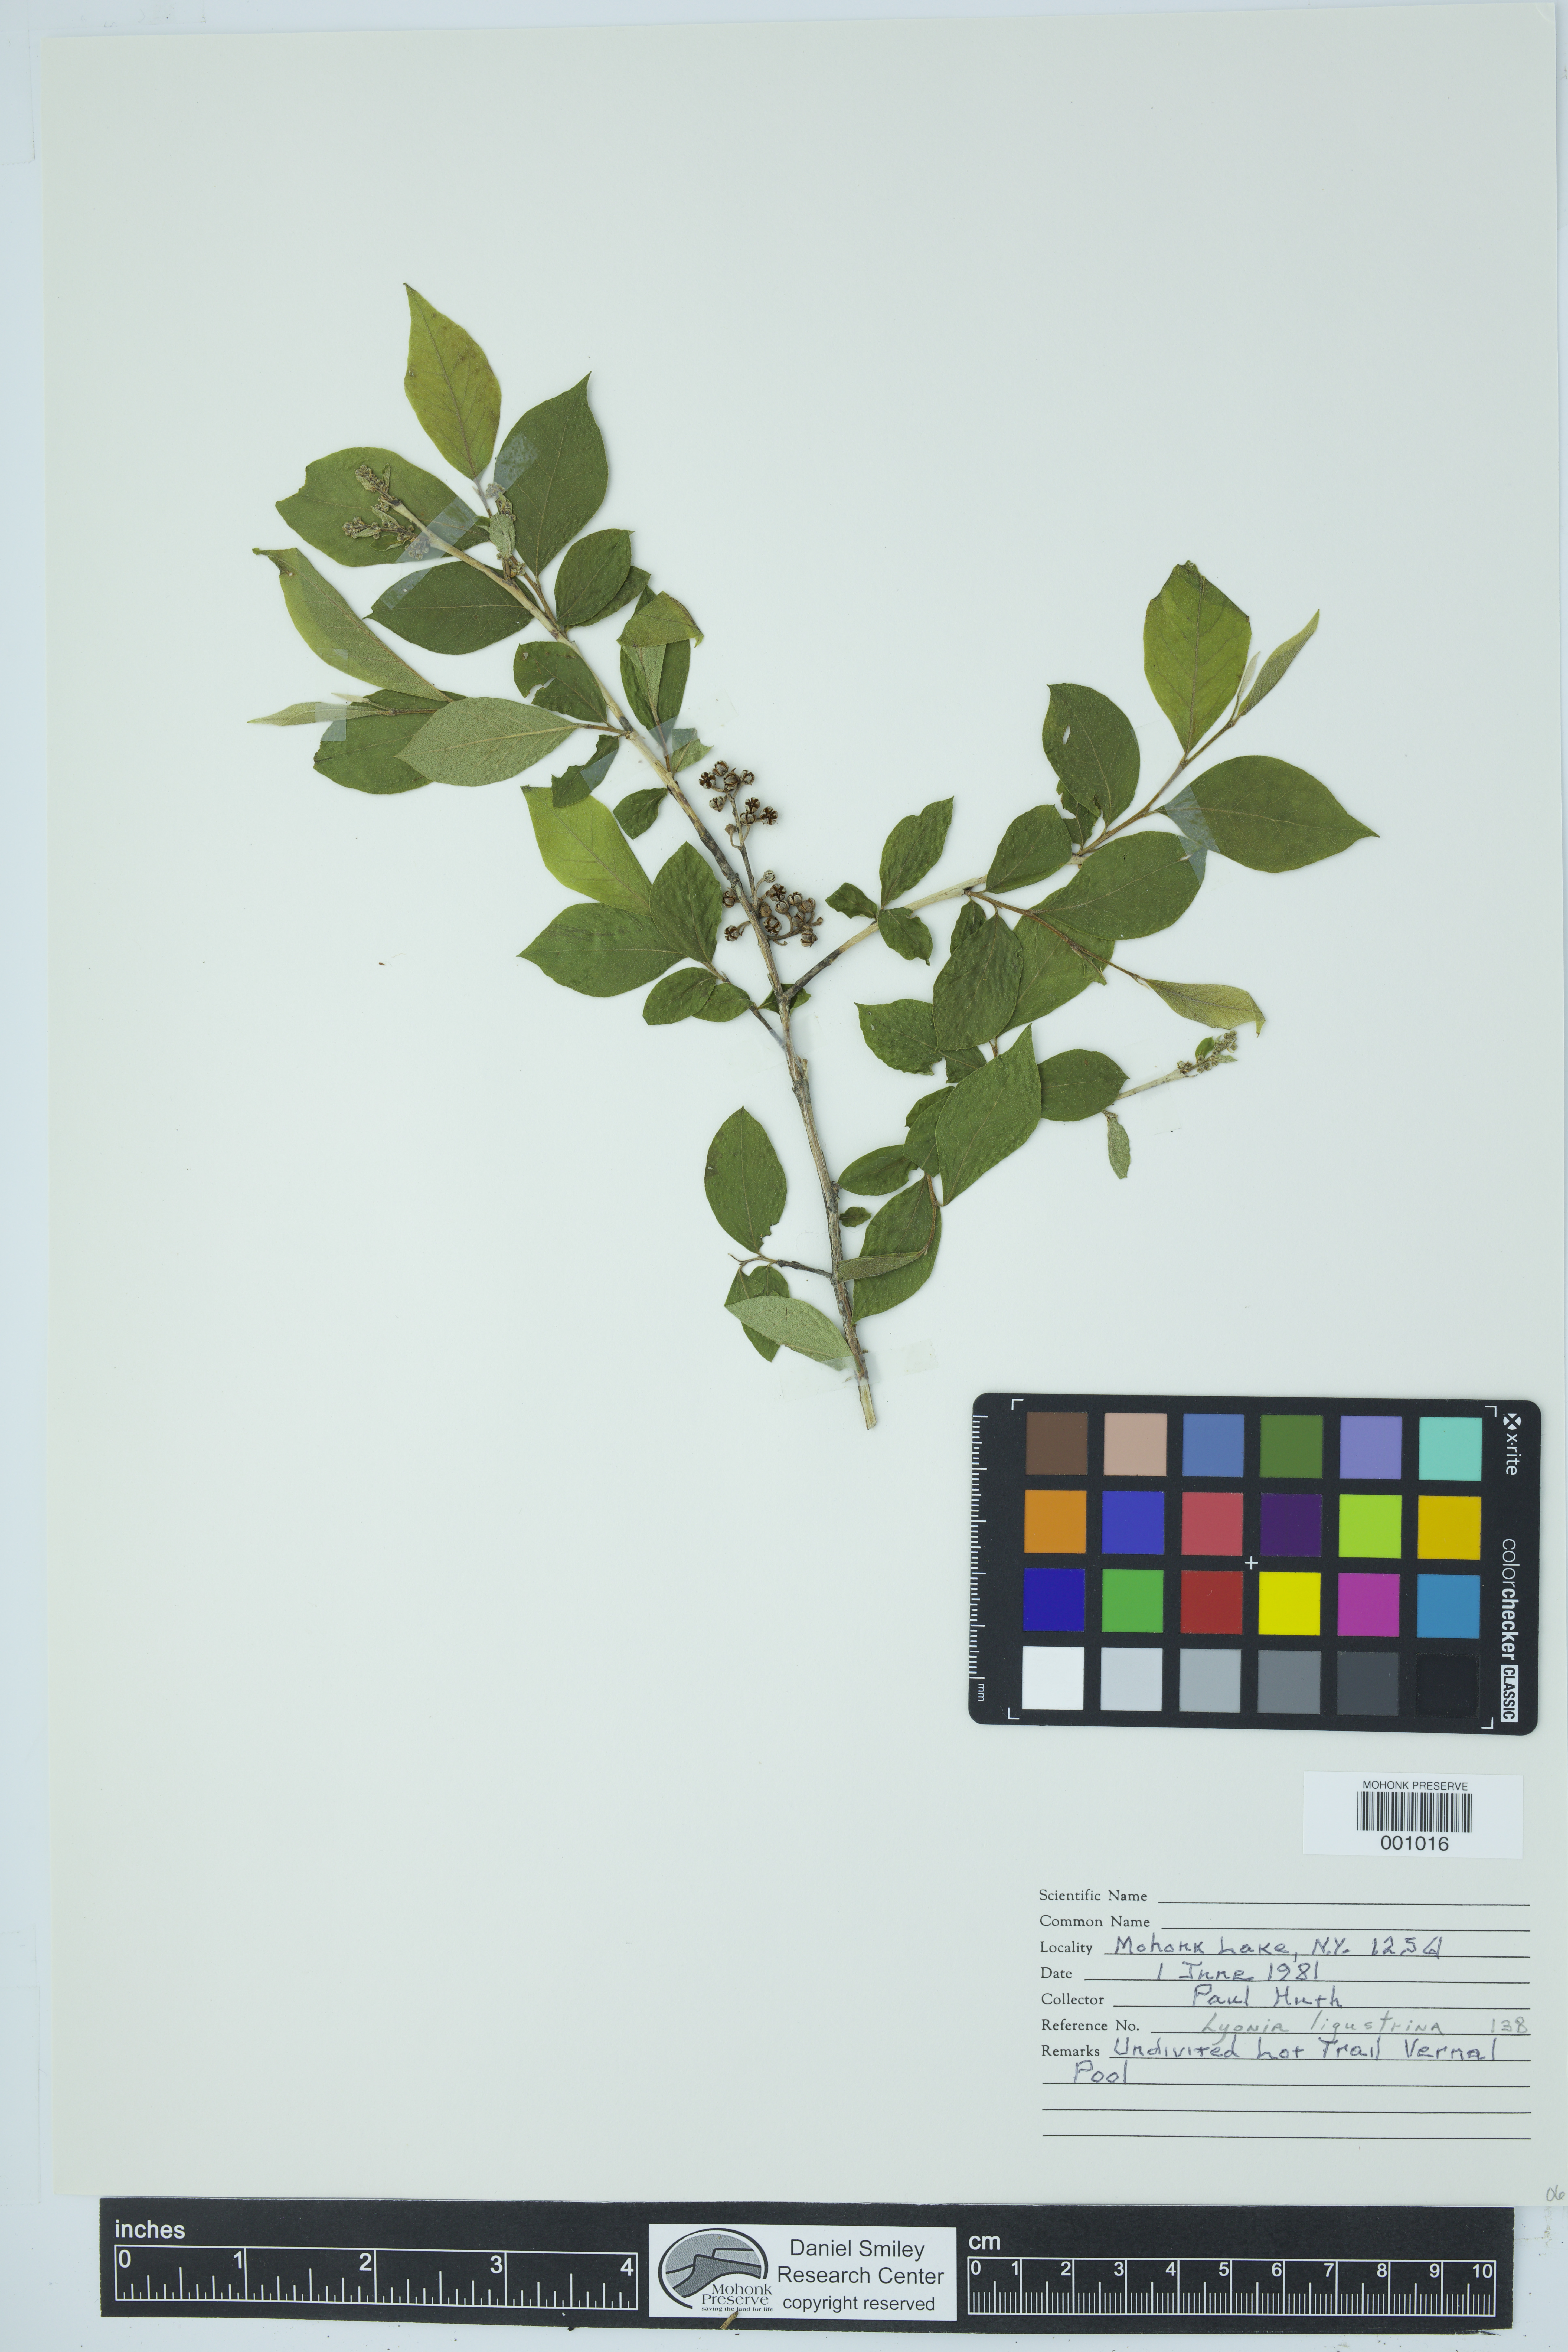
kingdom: Plantae
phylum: Tracheophyta
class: Magnoliopsida
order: Ericales
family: Ericaceae
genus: Lyonia
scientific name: Lyonia ligustrina
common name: Maleberry
